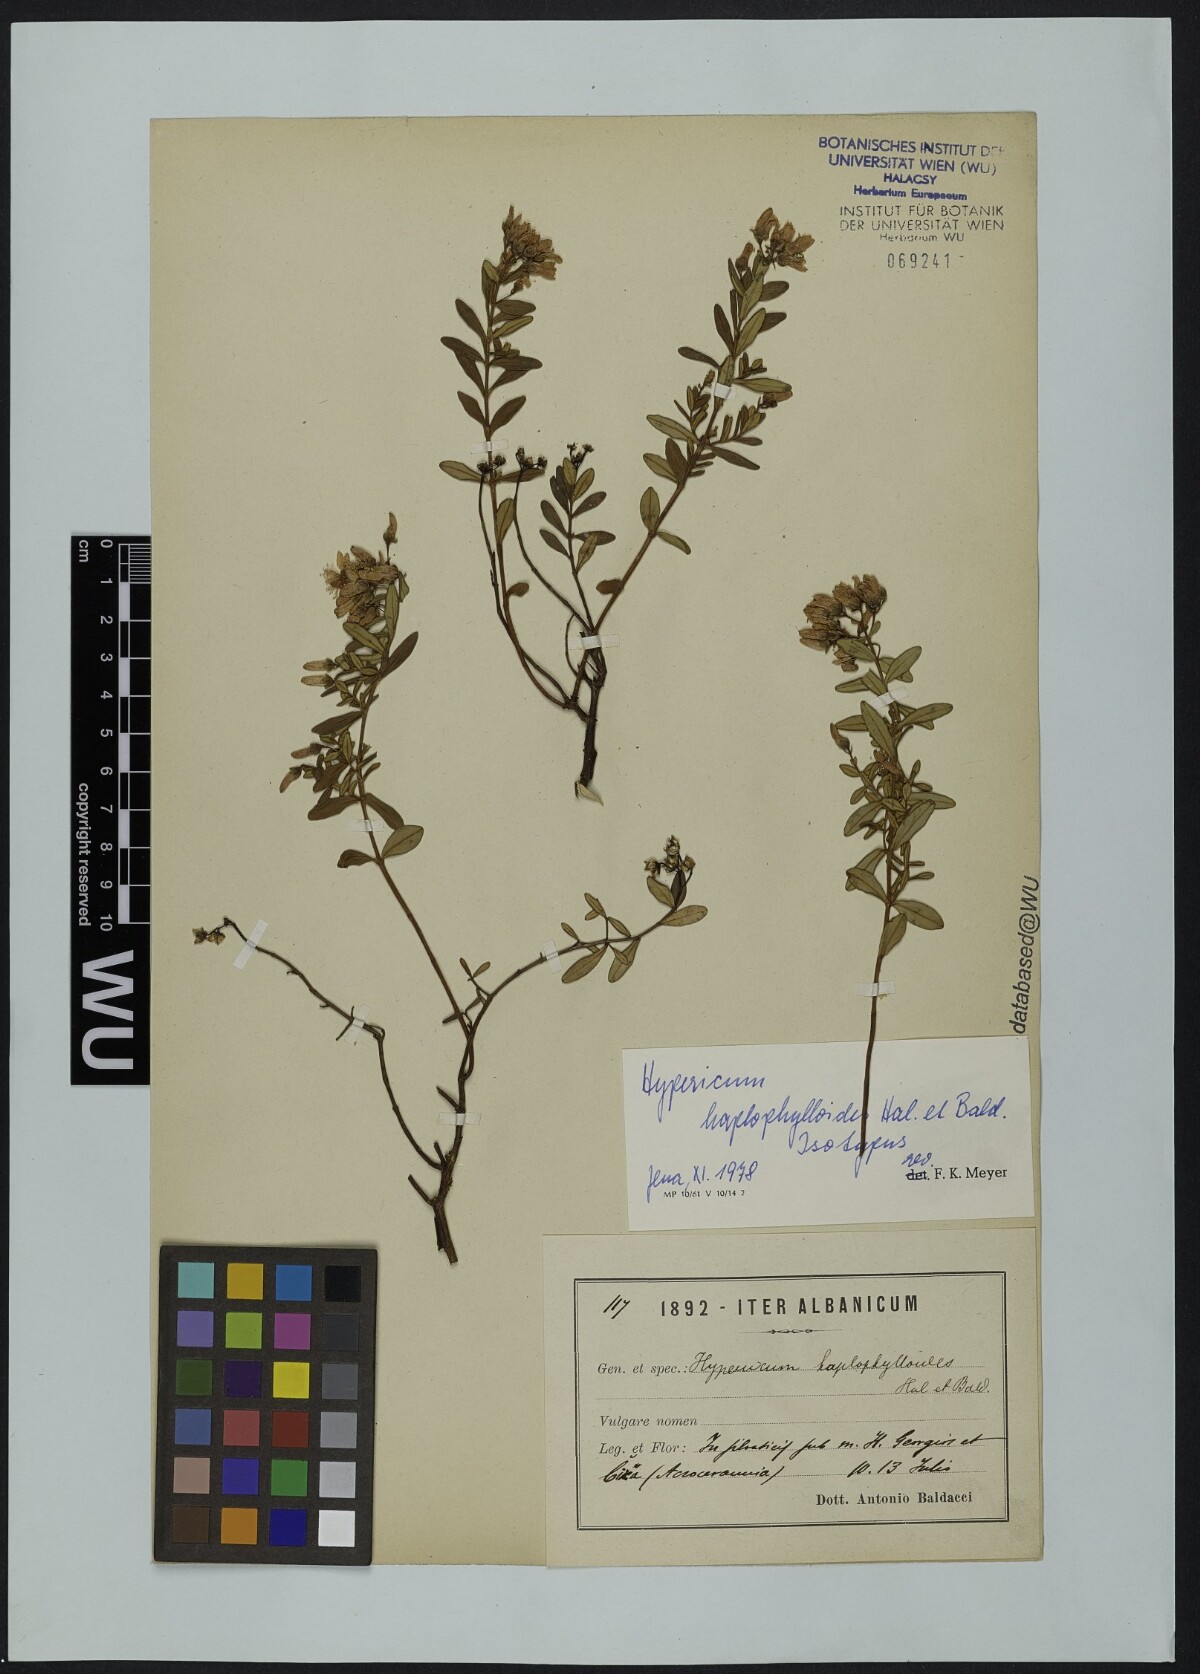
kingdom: Plantae
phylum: Tracheophyta
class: Magnoliopsida
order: Malpighiales
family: Hypericaceae
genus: Hypericum
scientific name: Hypericum haplophylloides
